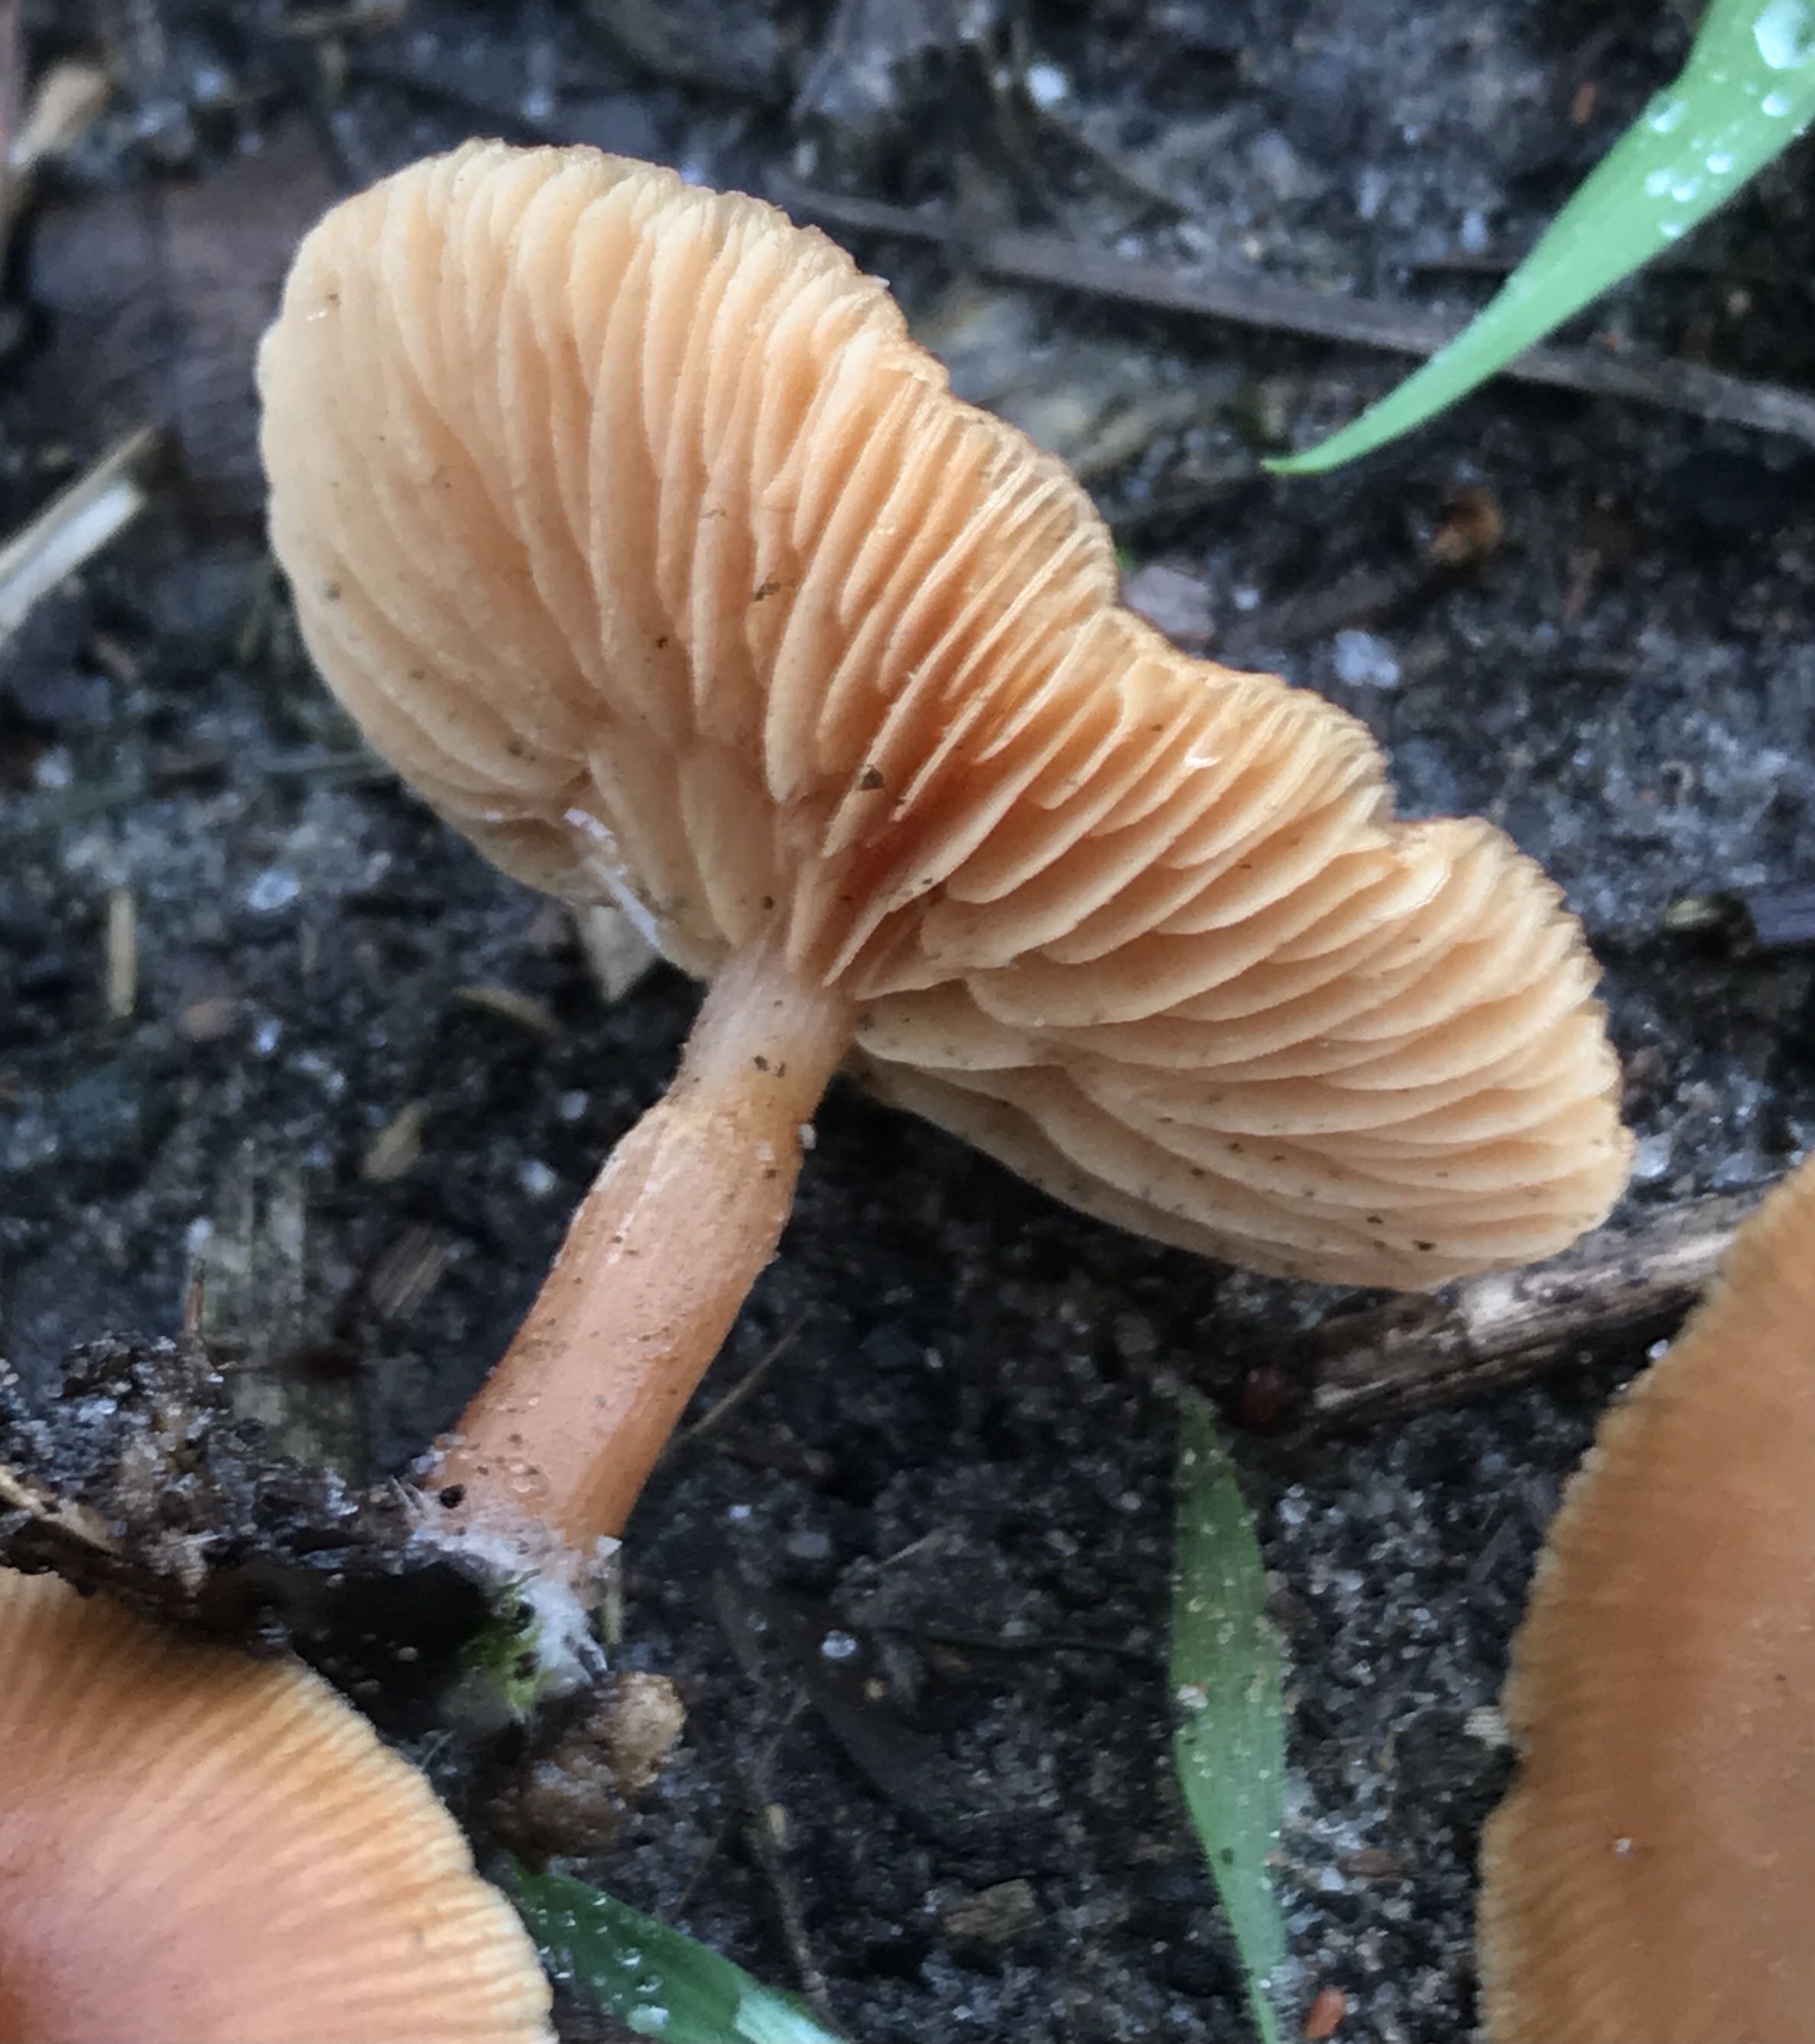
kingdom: Fungi
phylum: Basidiomycota
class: Agaricomycetes
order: Agaricales
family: Tubariaceae
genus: Tubaria
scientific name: Tubaria furfuracea
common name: kliddet fnughat
